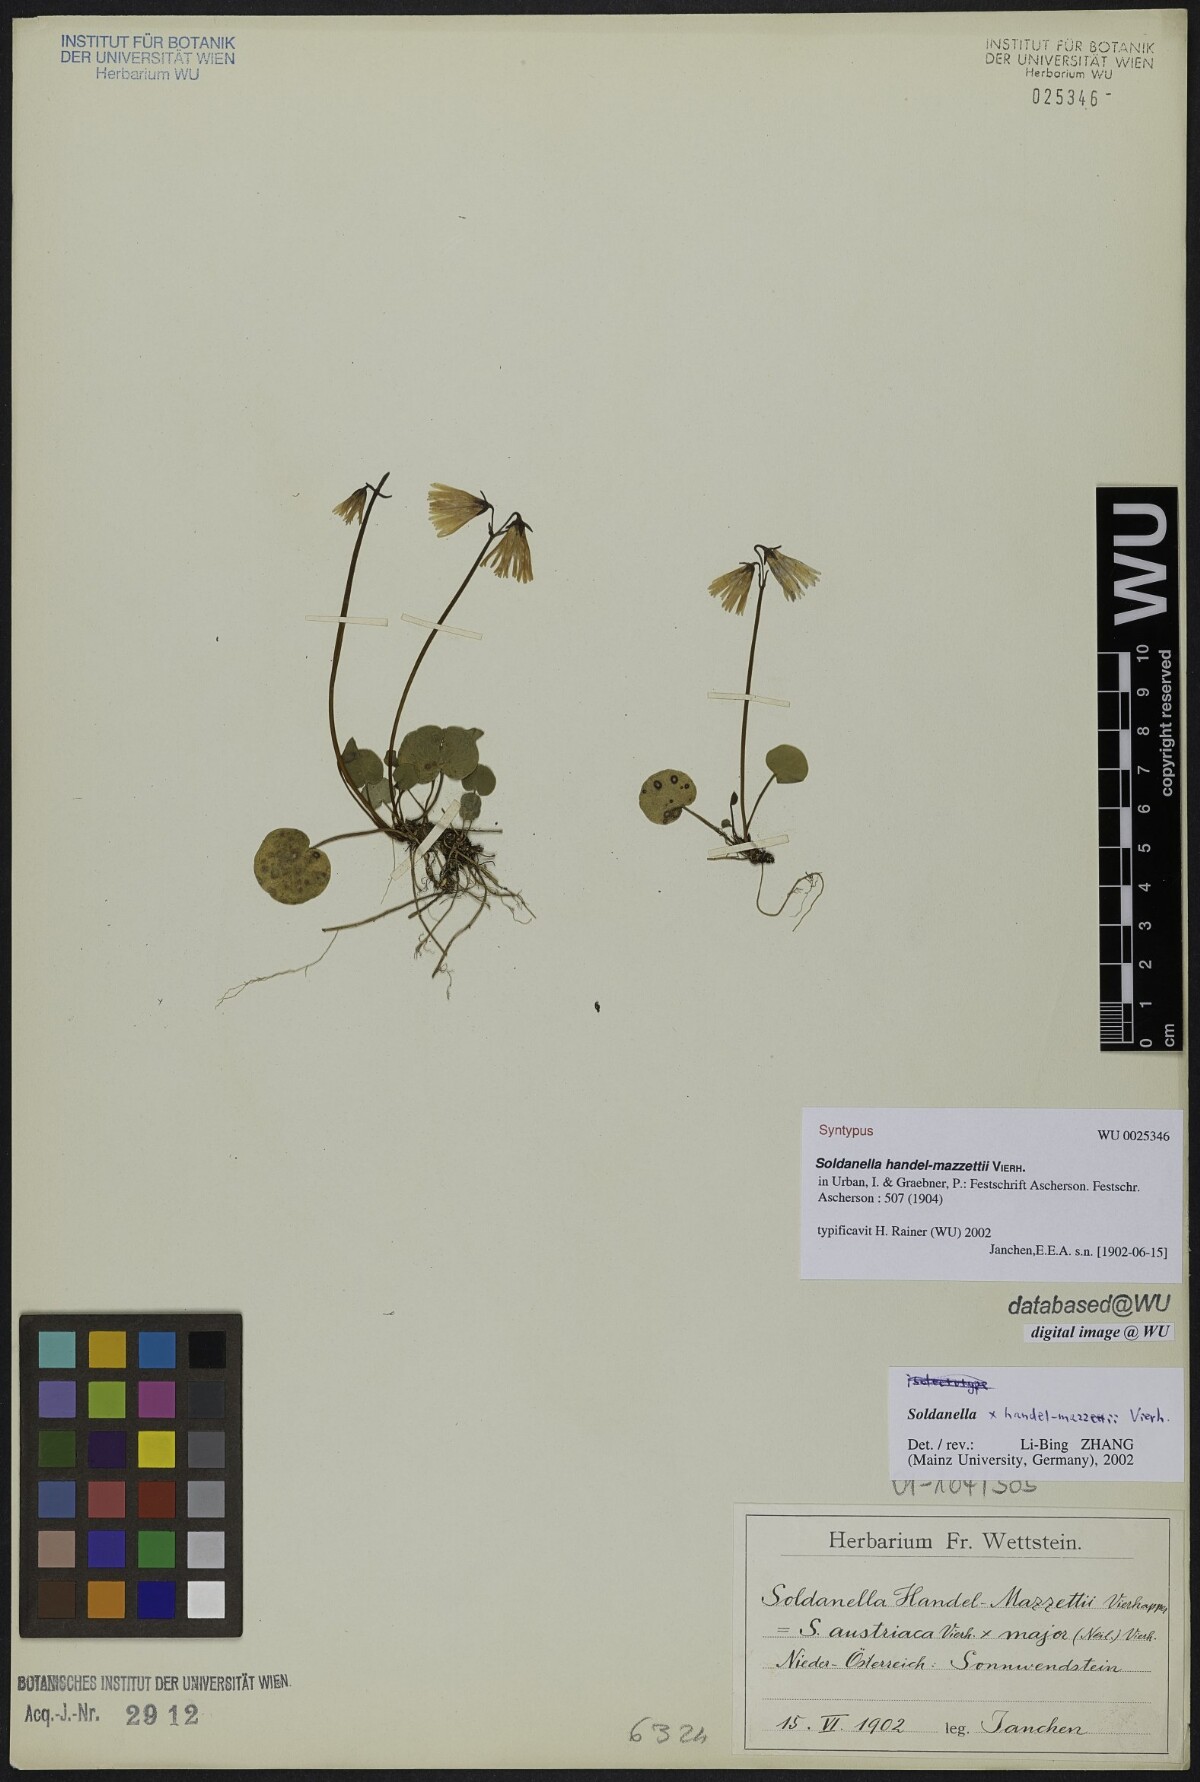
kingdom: Plantae
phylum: Tracheophyta
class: Magnoliopsida
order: Ericales
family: Primulaceae
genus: Soldanella
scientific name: Soldanella handel-mazzettii
